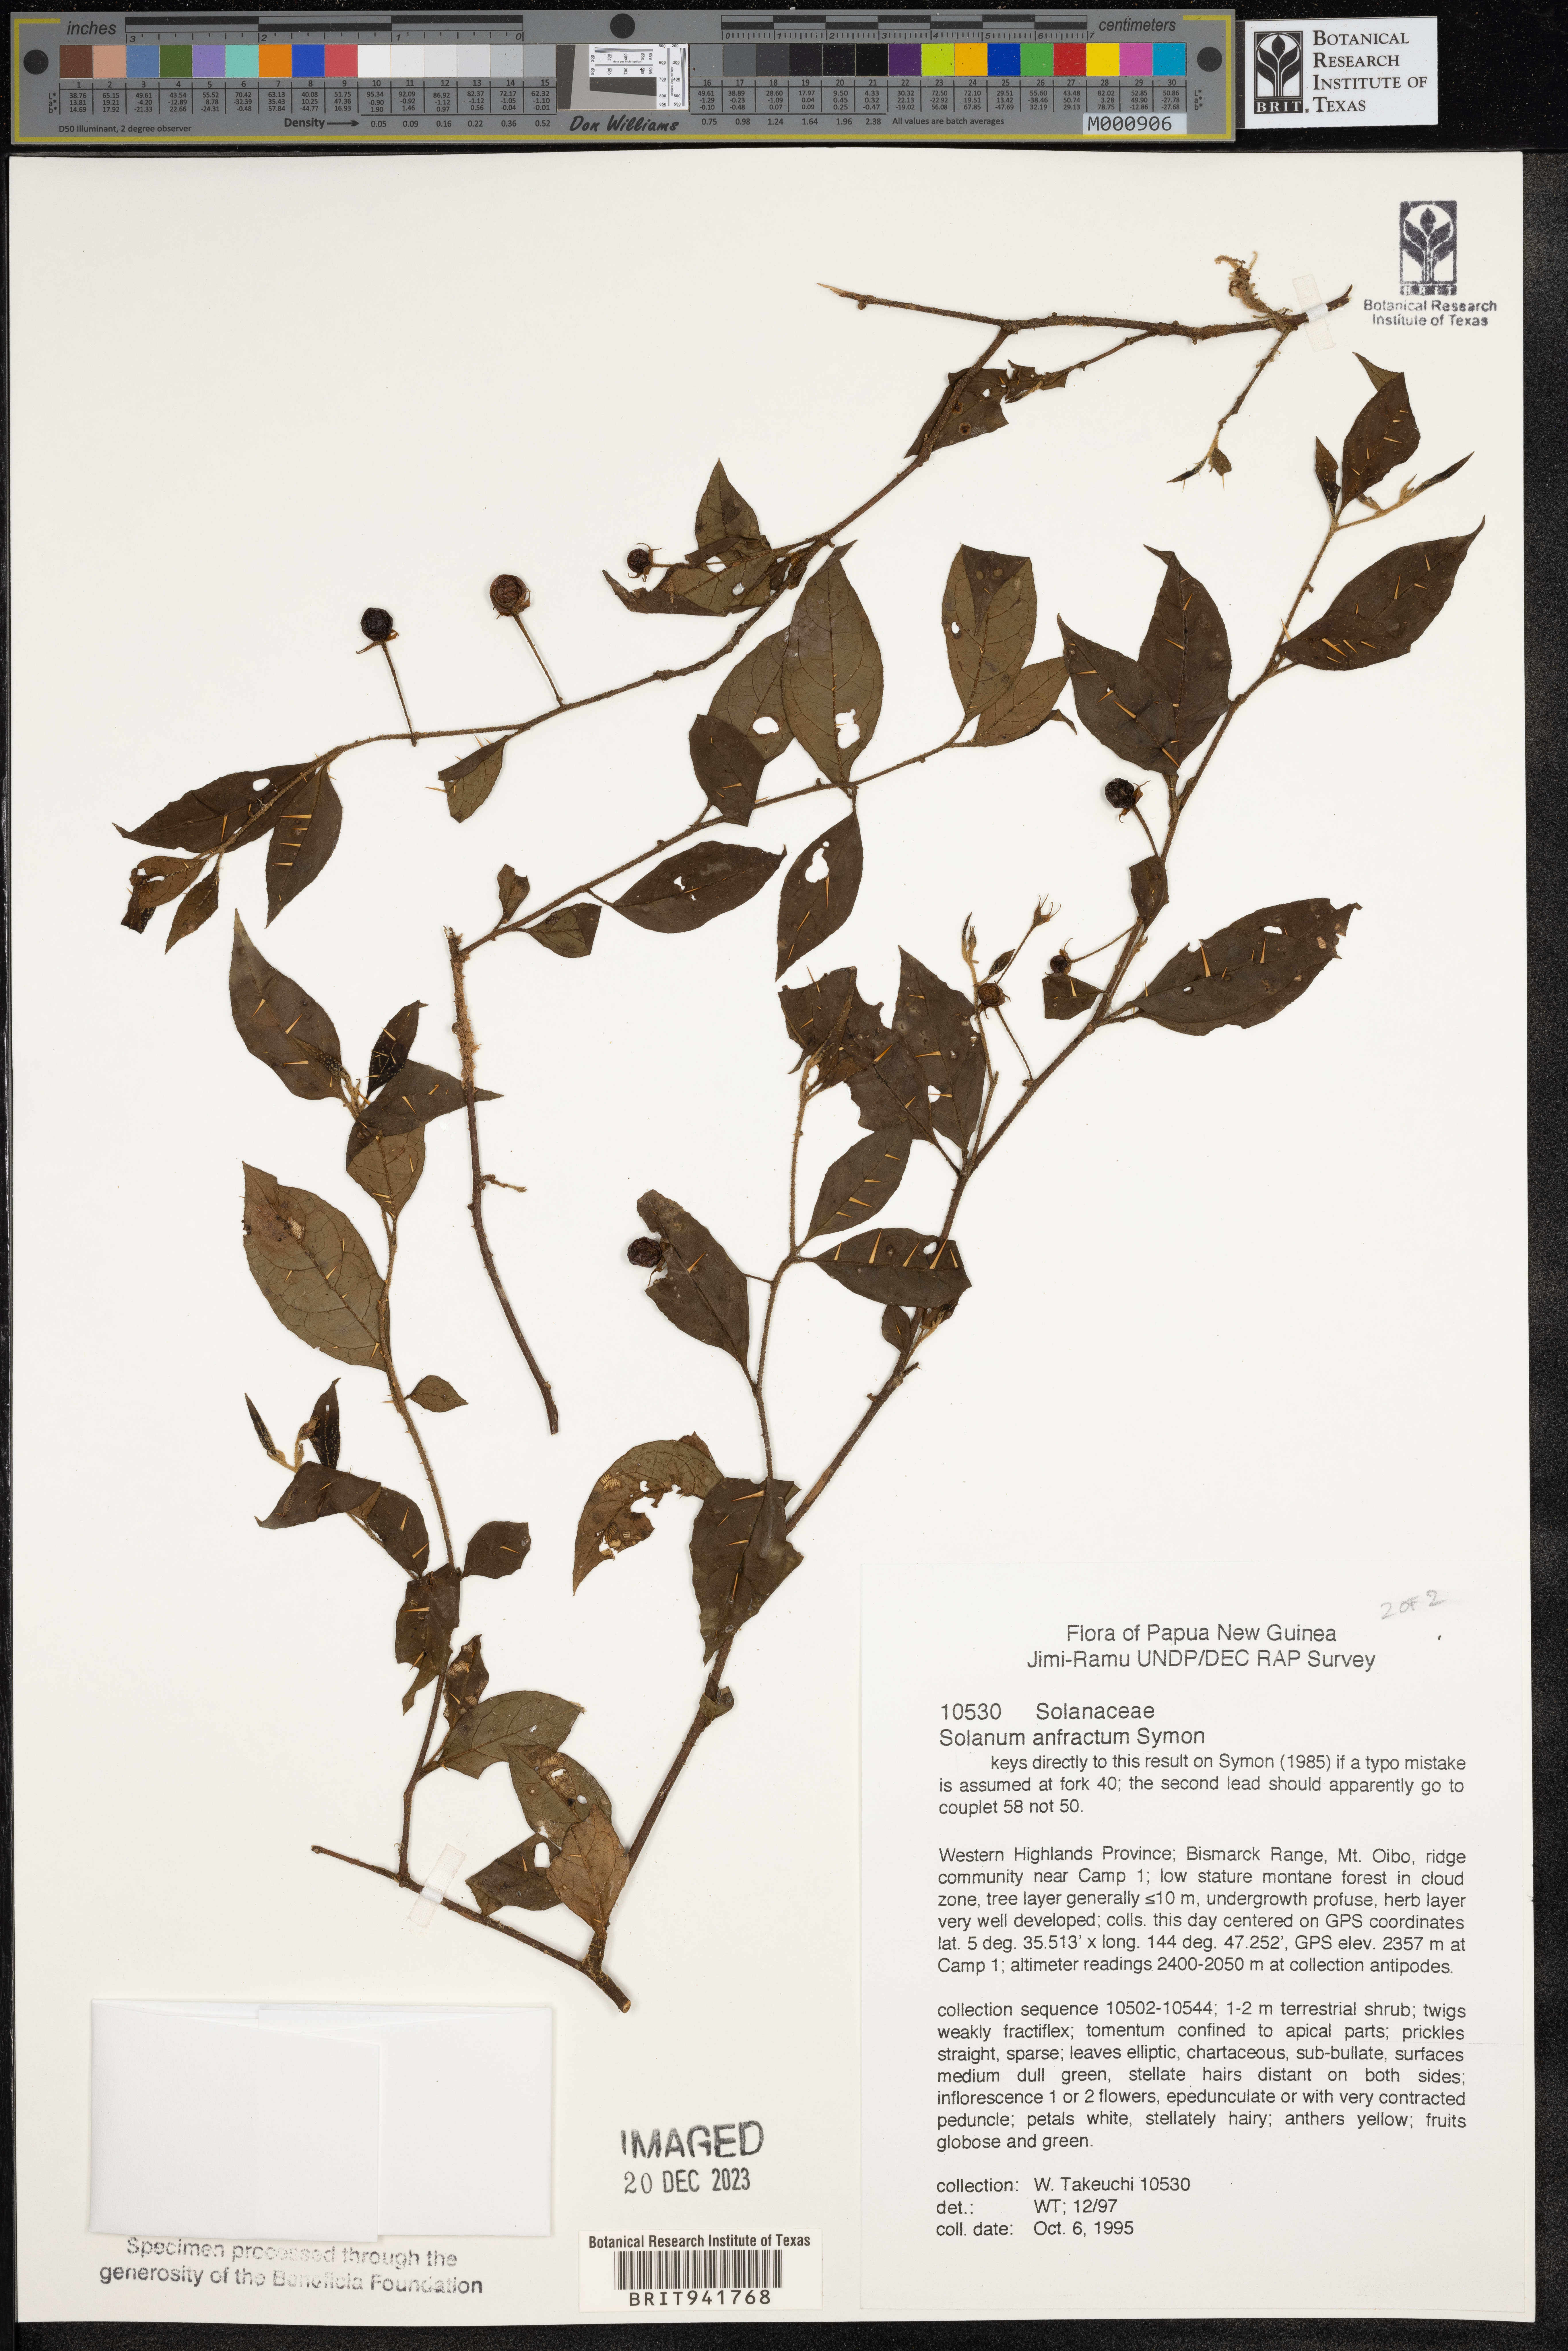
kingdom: Plantae
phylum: Tracheophyta
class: Magnoliopsida
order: Solanales
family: Solanaceae
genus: Solanum
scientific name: Solanum
